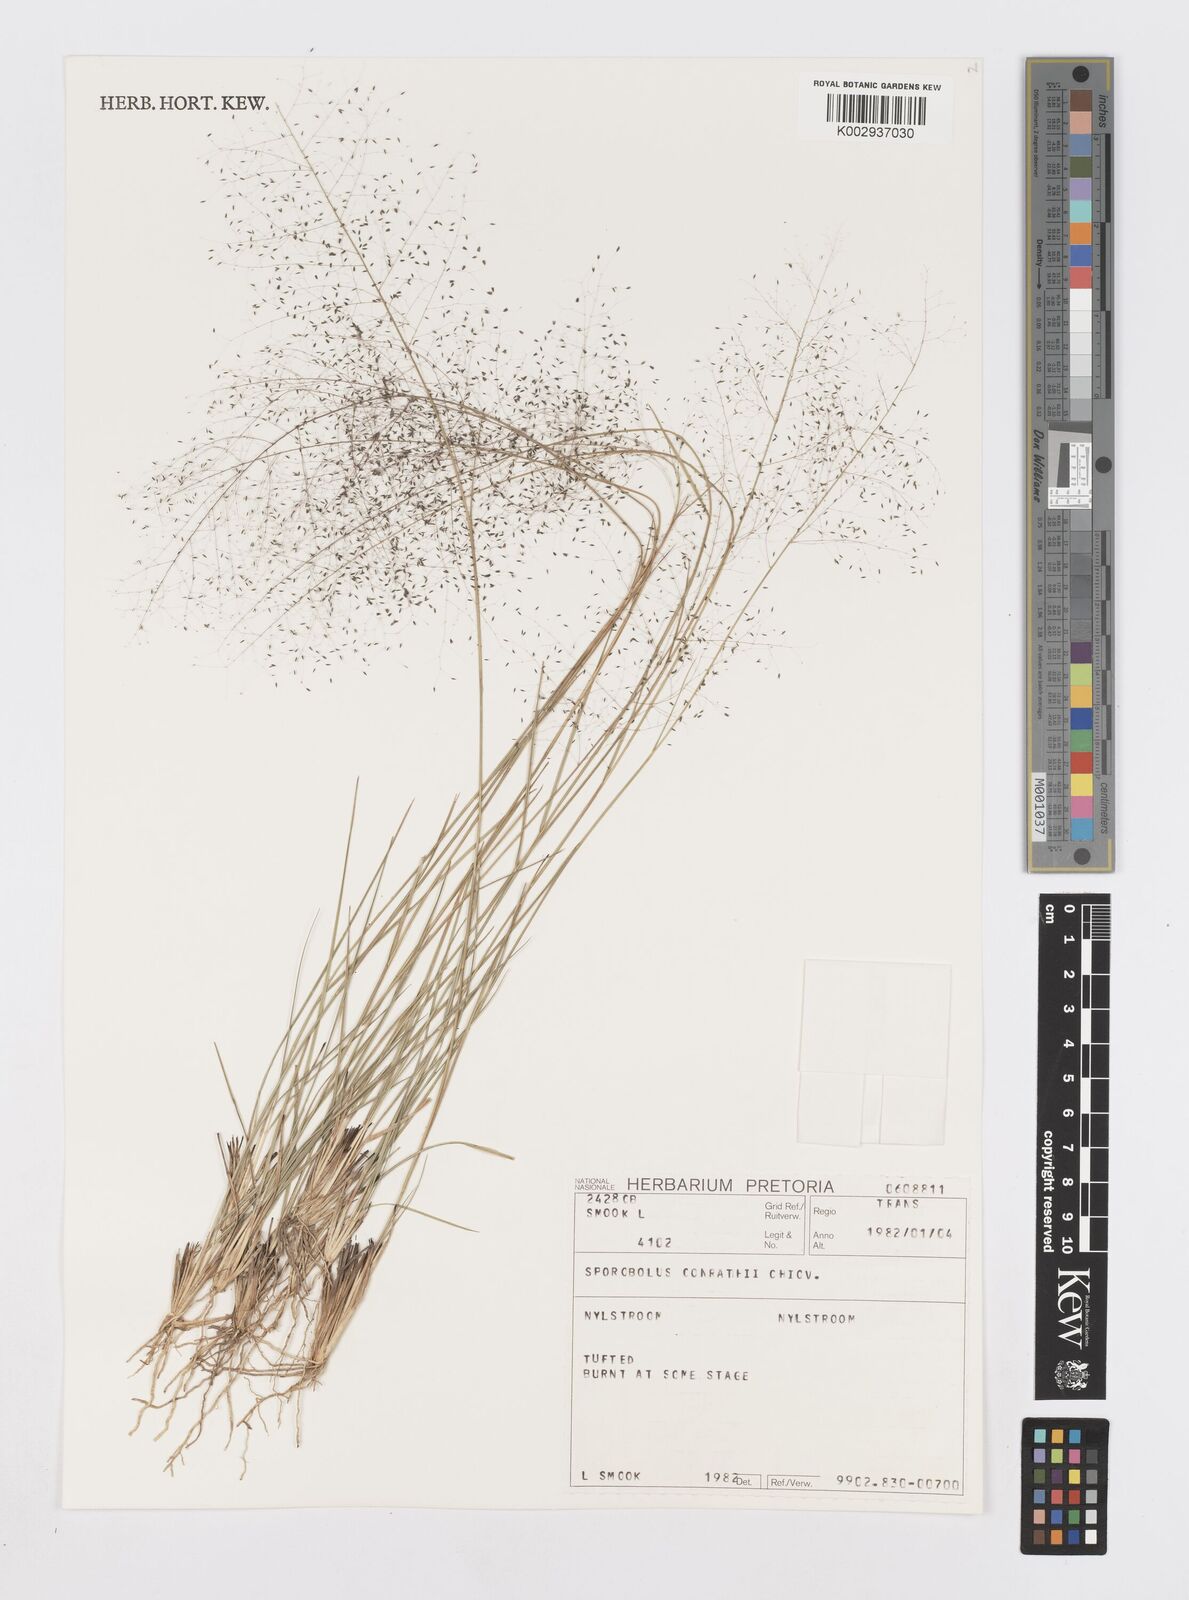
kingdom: Plantae
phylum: Tracheophyta
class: Liliopsida
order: Poales
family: Poaceae
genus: Sporobolus
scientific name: Sporobolus welwitschii
